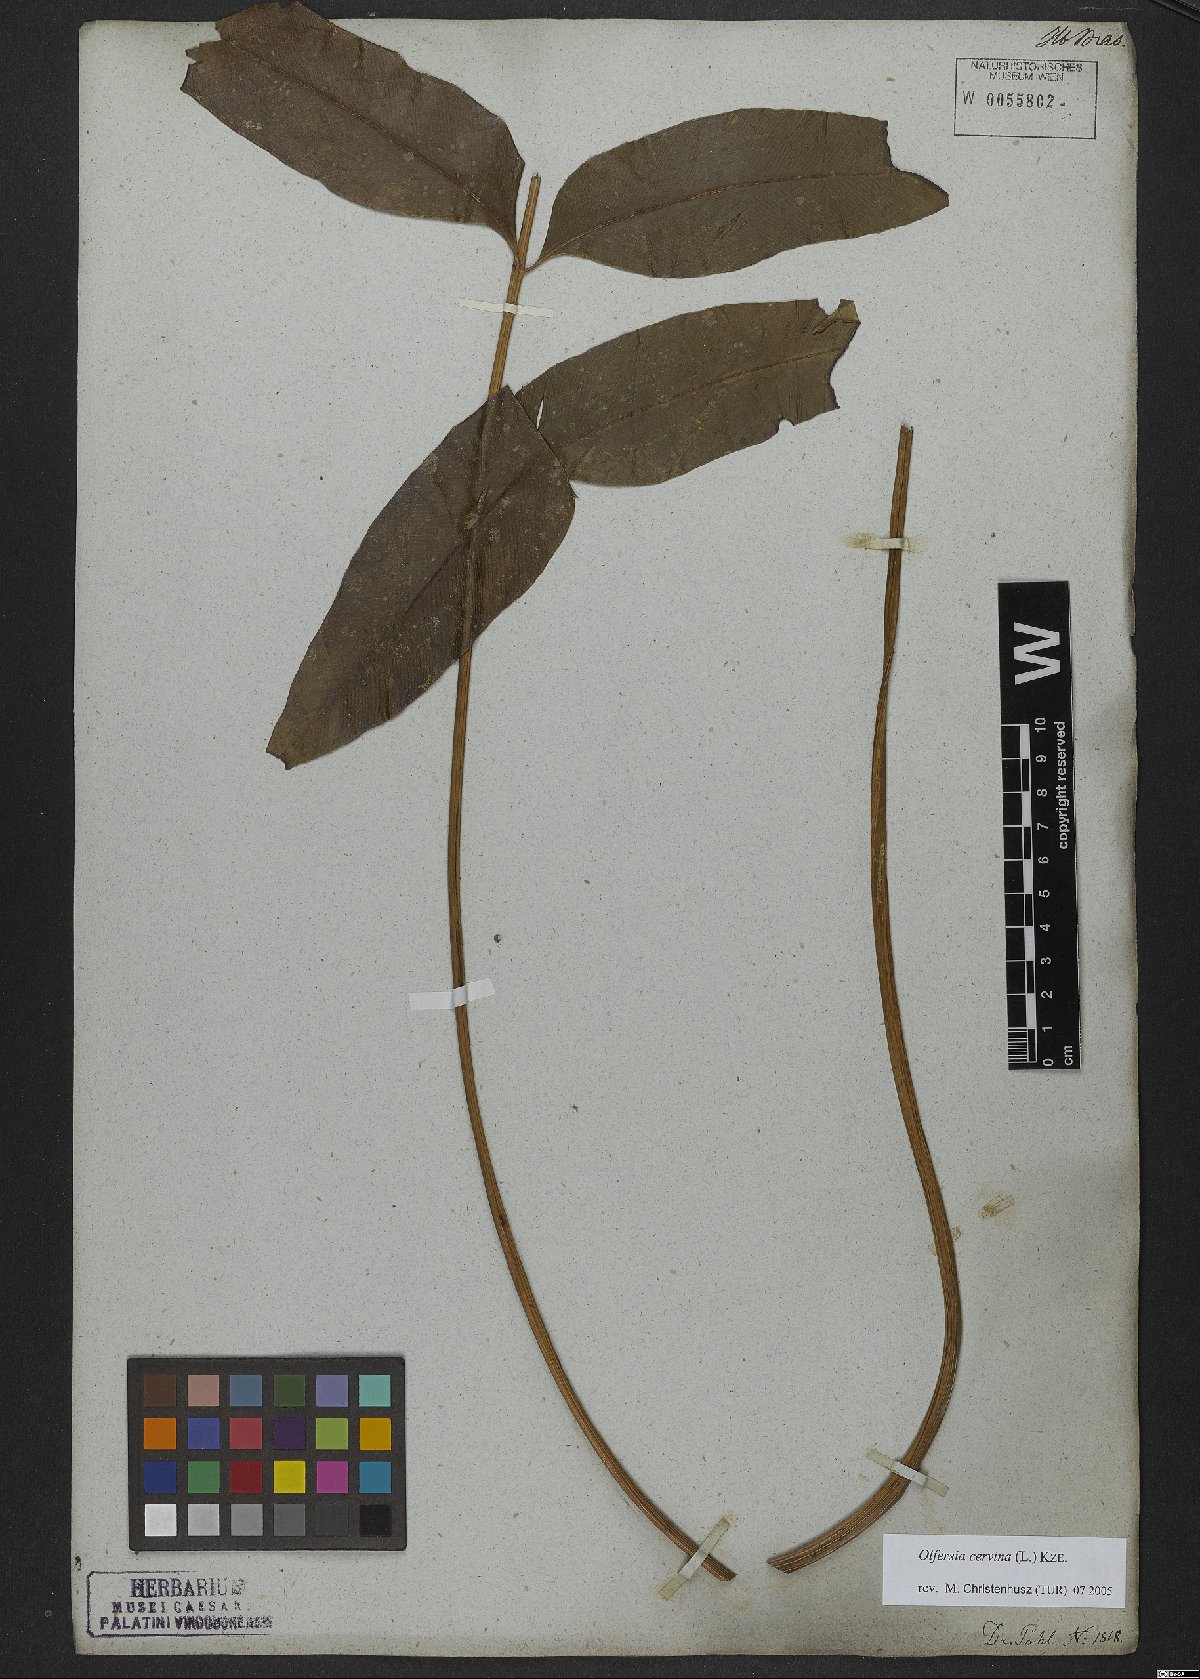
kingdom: Plantae
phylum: Tracheophyta
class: Polypodiopsida
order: Polypodiales
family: Dryopteridaceae
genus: Olfersia
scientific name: Olfersia cervina
